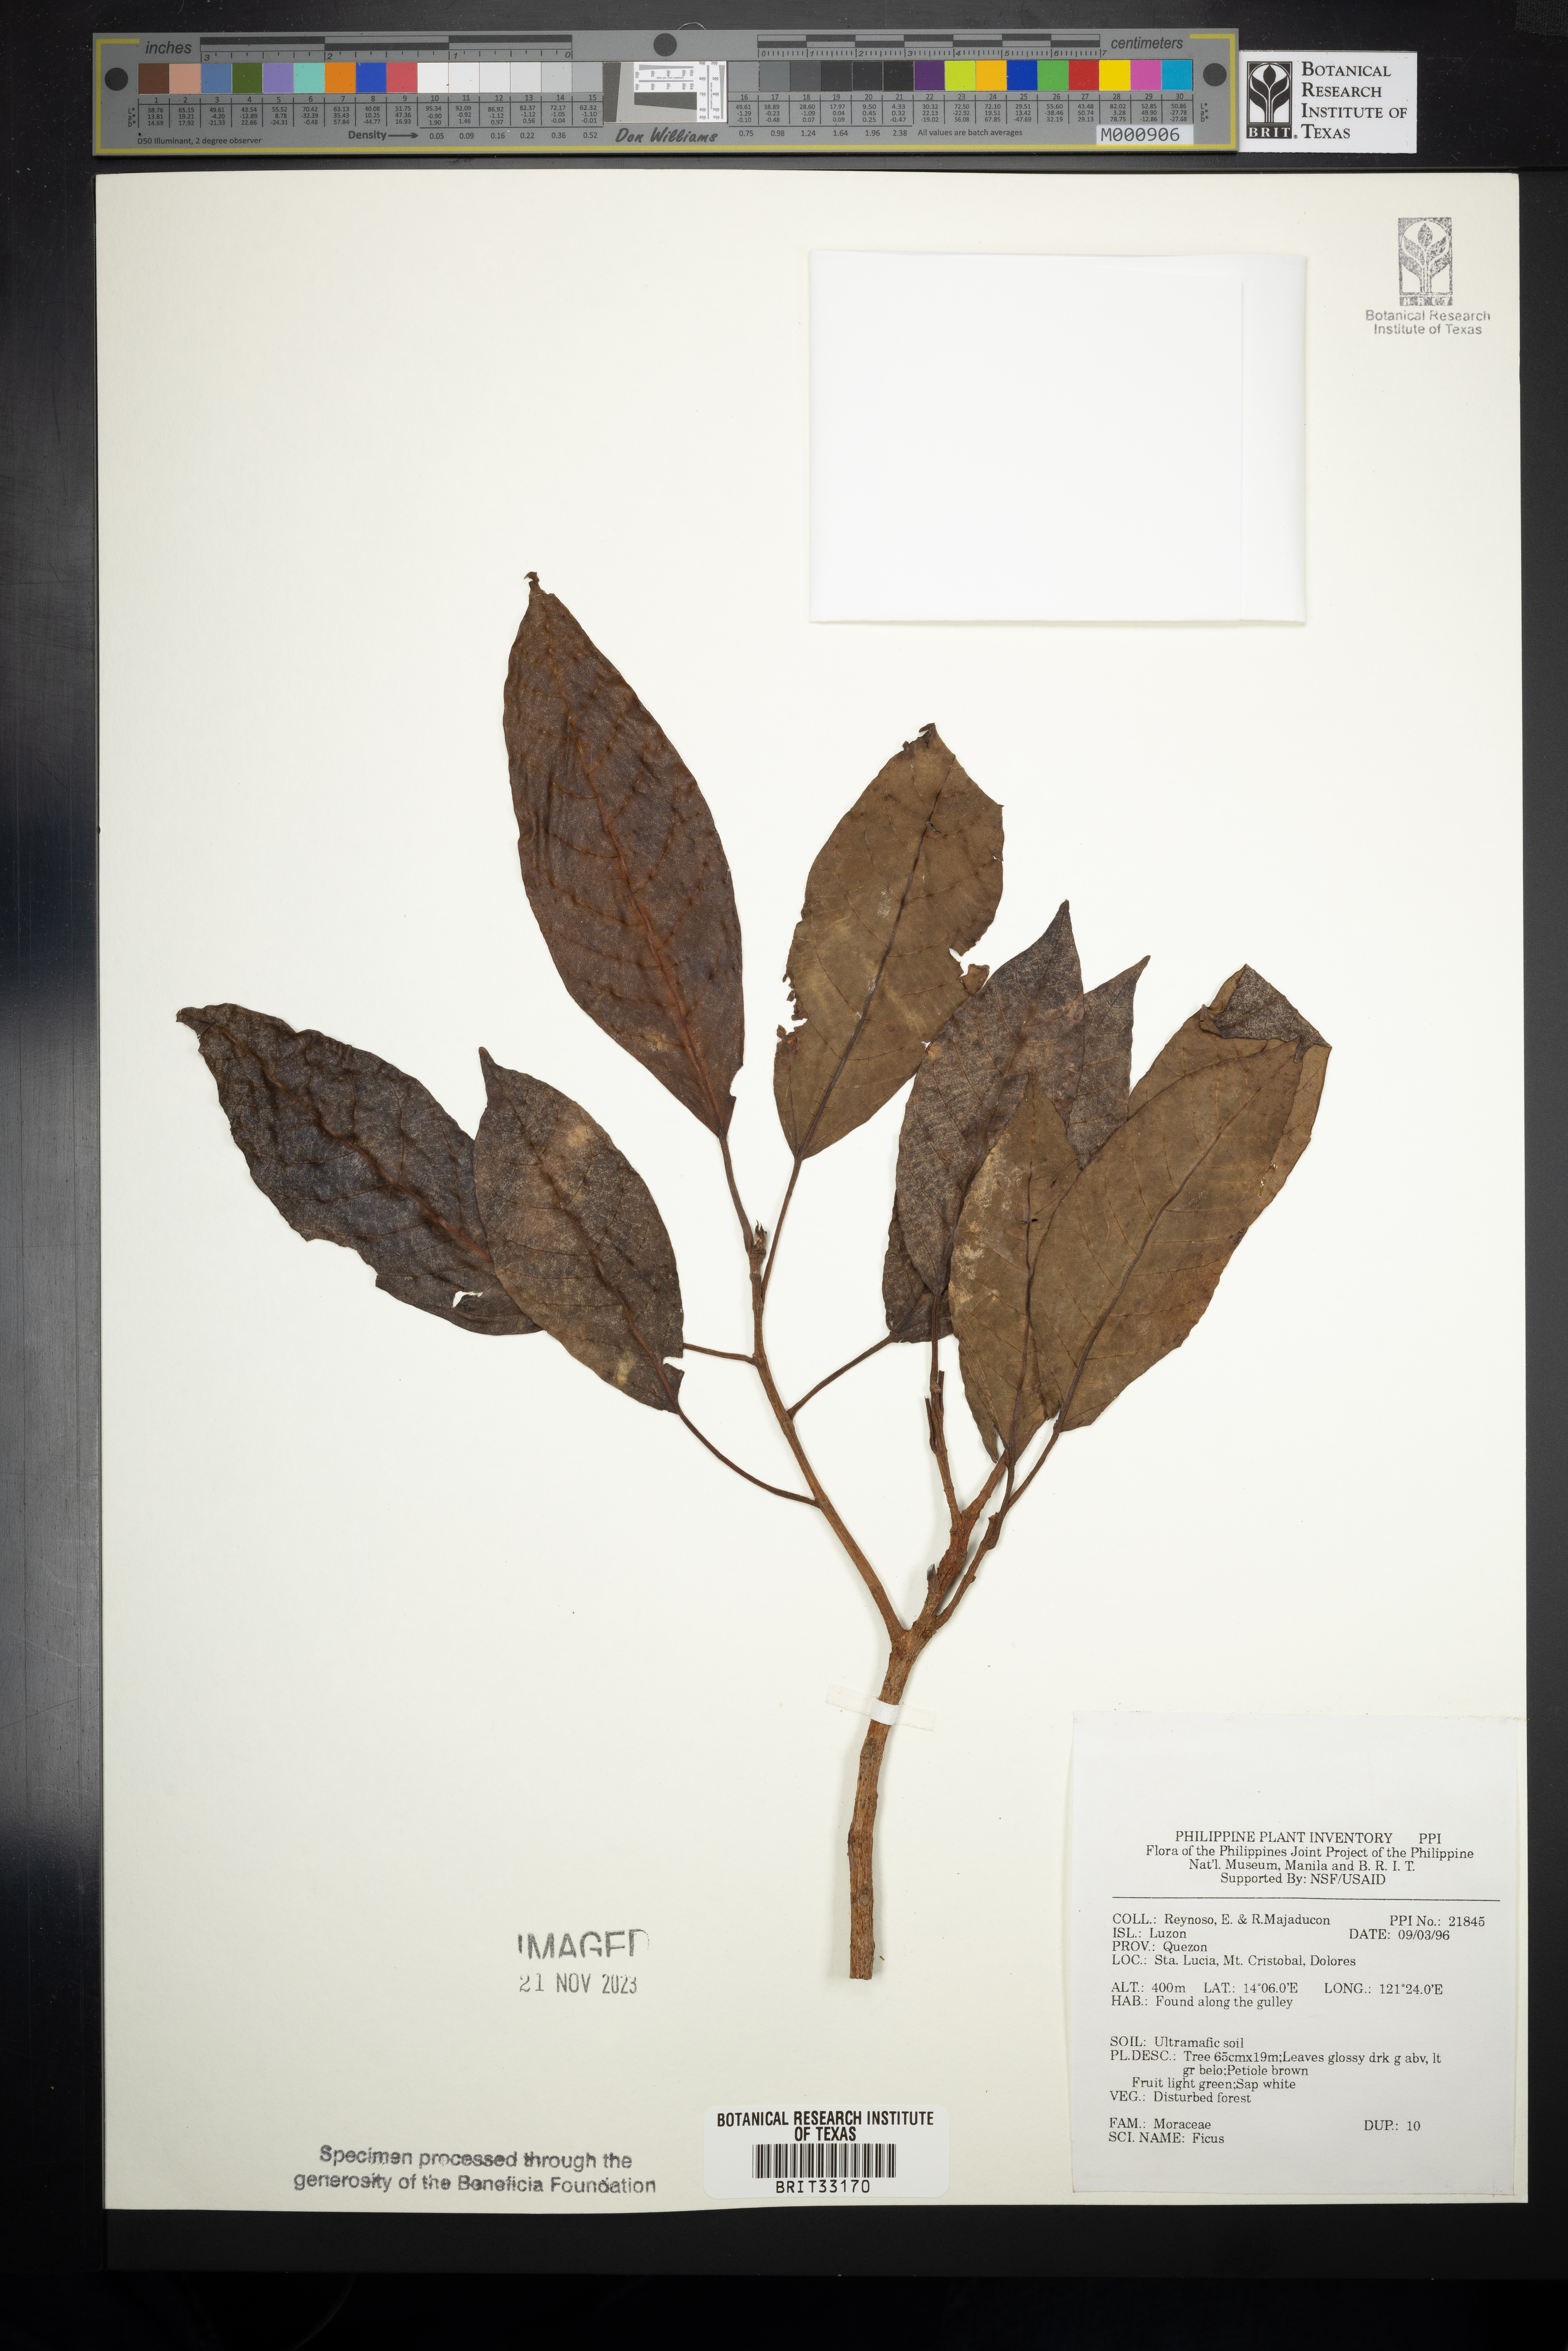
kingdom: Plantae
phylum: Tracheophyta
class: Magnoliopsida
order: Rosales
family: Moraceae
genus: Ficus
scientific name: Ficus
